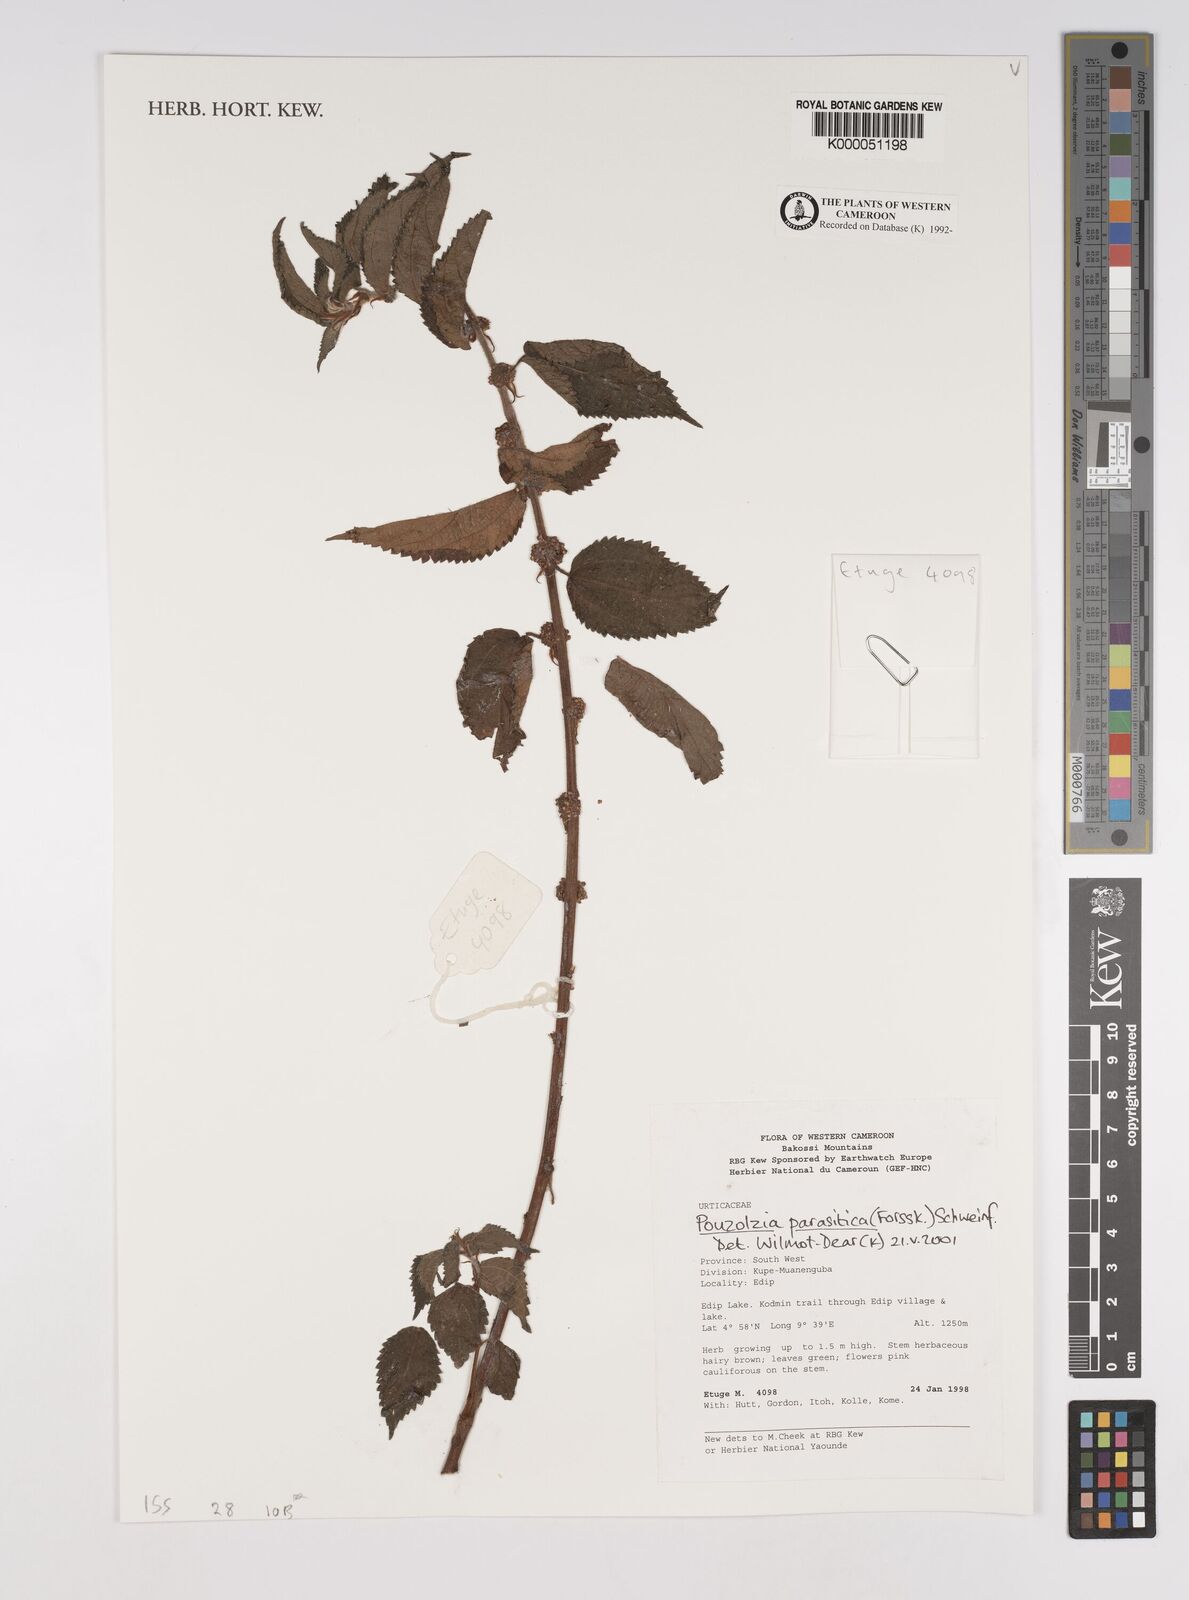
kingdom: Plantae
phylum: Tracheophyta
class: Magnoliopsida
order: Rosales
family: Urticaceae
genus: Pouzolzia
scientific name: Pouzolzia parasitica
